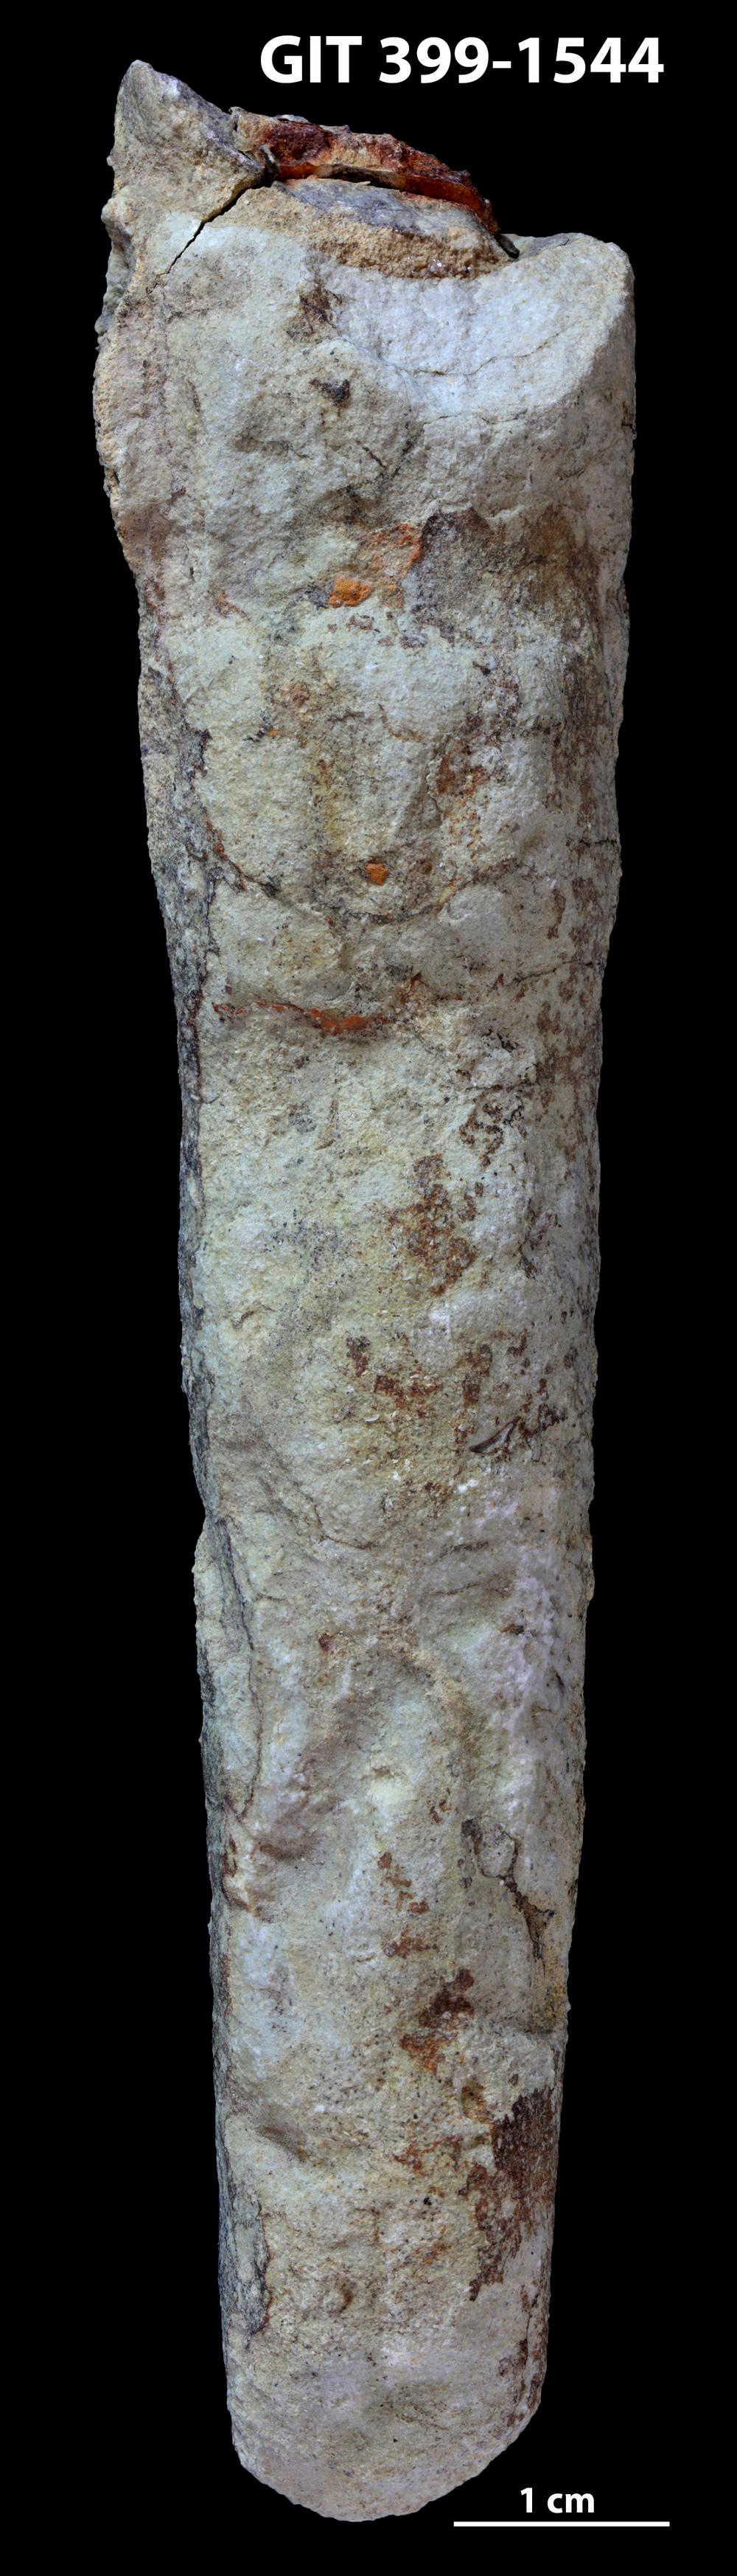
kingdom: Animalia
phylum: Mollusca
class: Cephalopoda
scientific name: Cephalopoda
